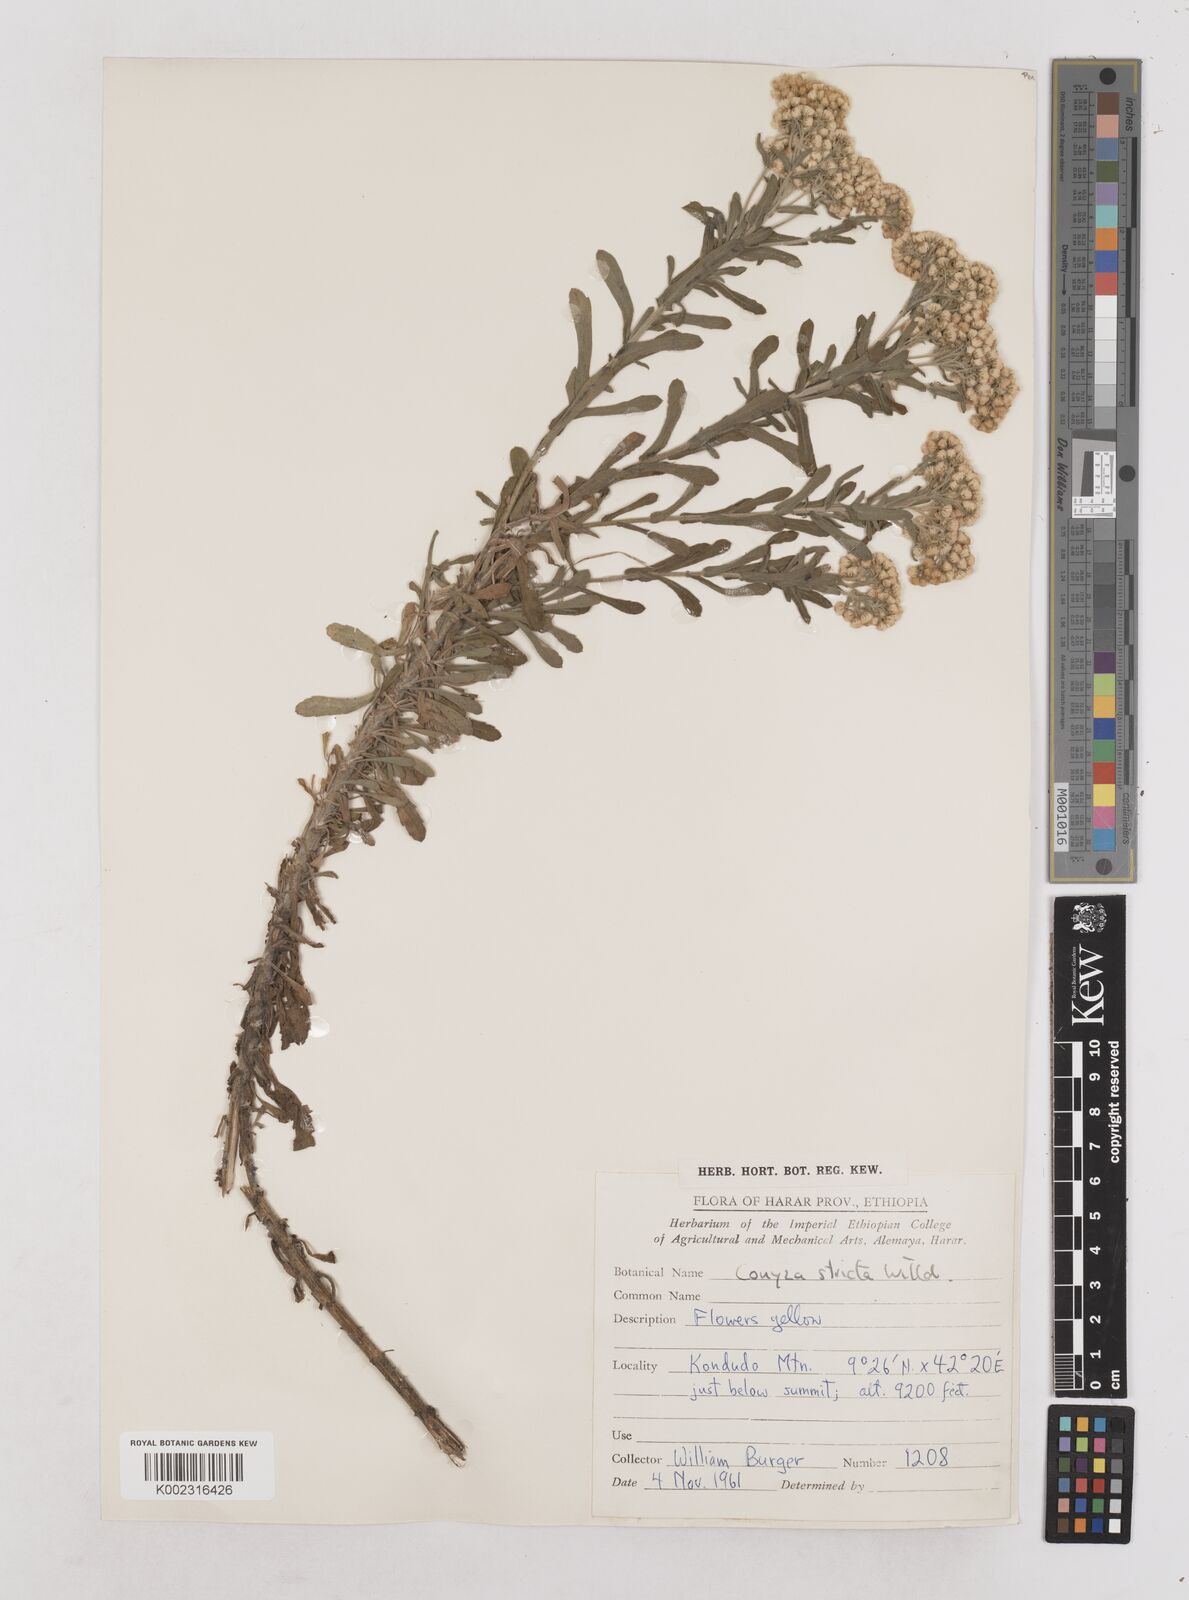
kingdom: Plantae
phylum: Tracheophyta
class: Magnoliopsida
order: Asterales
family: Asteraceae
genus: Nidorella
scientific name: Nidorella triloba
